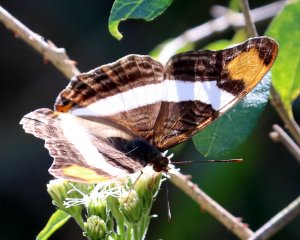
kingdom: Animalia
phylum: Arthropoda
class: Insecta
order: Lepidoptera
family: Nymphalidae
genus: Limenitis
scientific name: Limenitis fessonia
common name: Band-celled Sister
